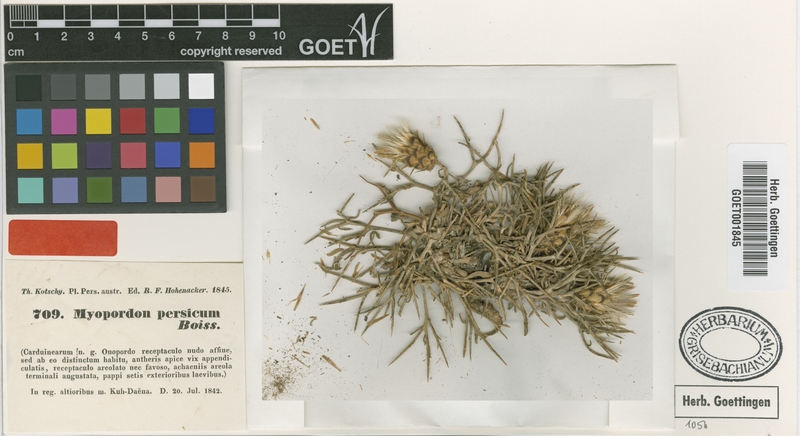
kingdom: Plantae
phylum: Tracheophyta
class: Magnoliopsida
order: Asterales
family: Asteraceae
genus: Myopordon
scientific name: Myopordon persicum
